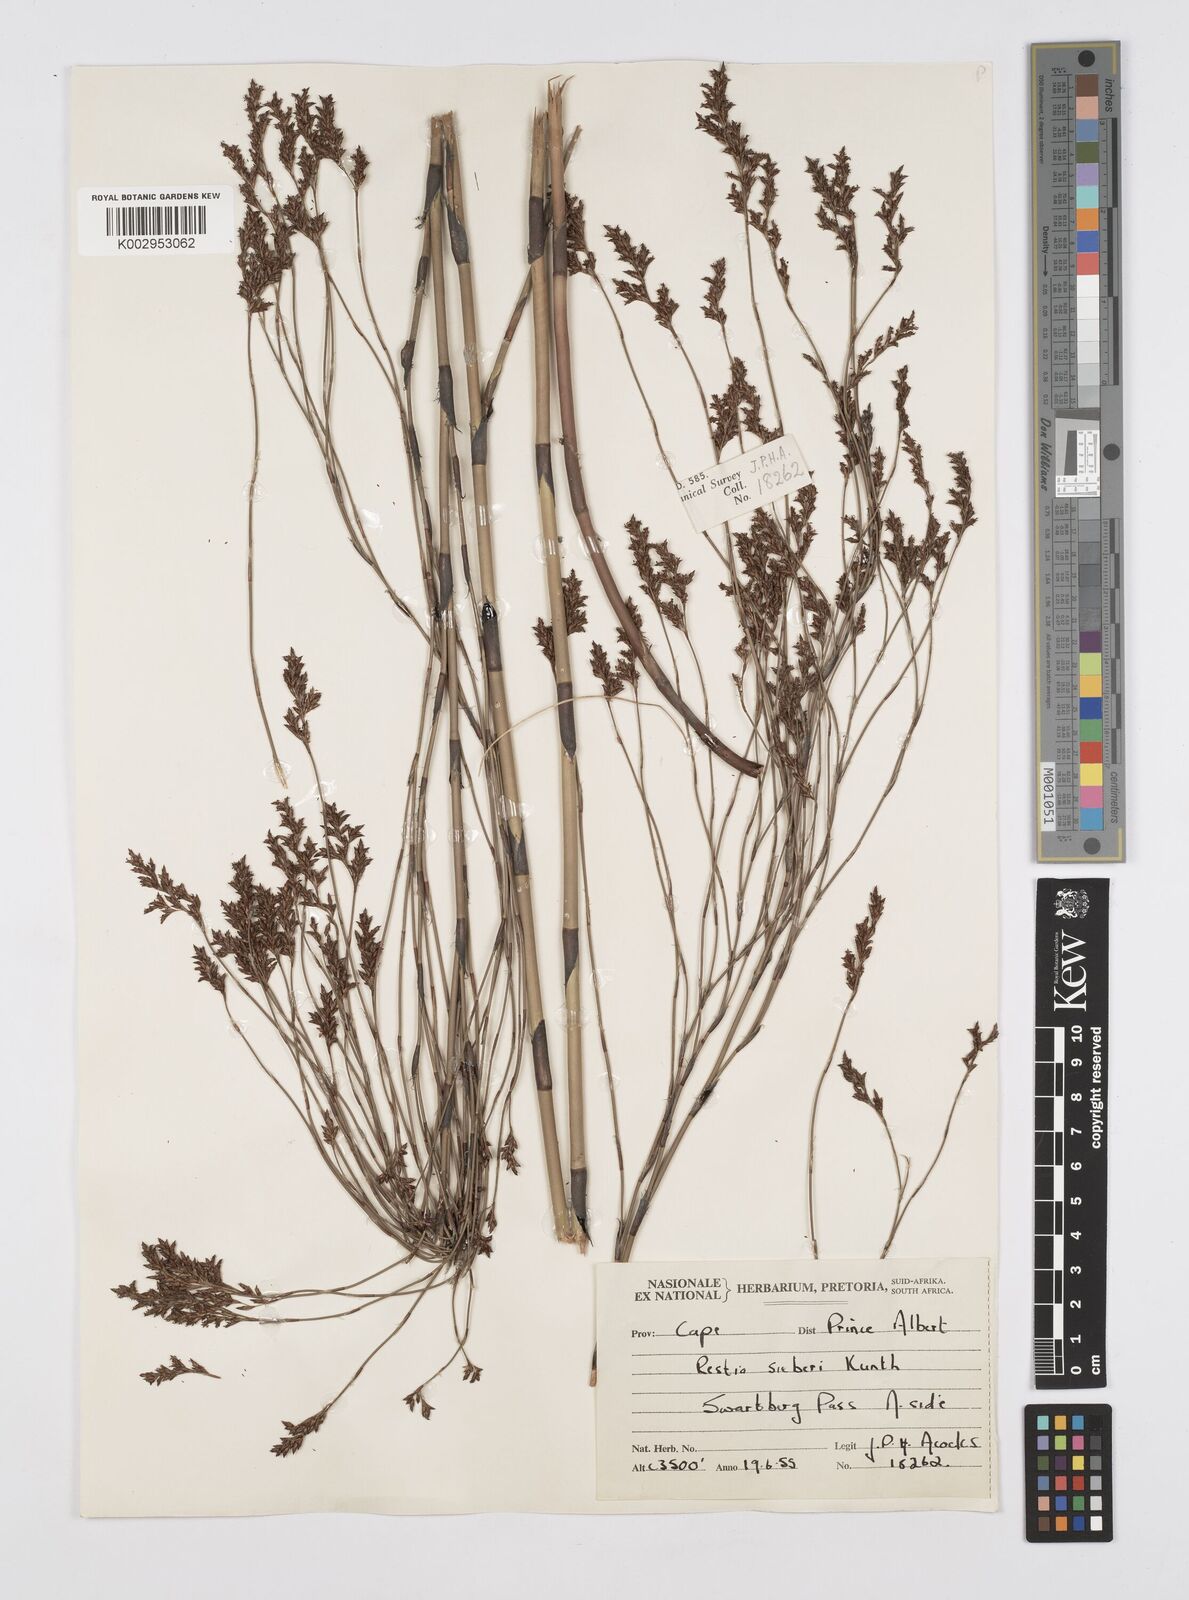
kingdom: Plantae
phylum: Tracheophyta
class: Liliopsida
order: Poales
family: Restionaceae
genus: Restio
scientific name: Restio sieberi
